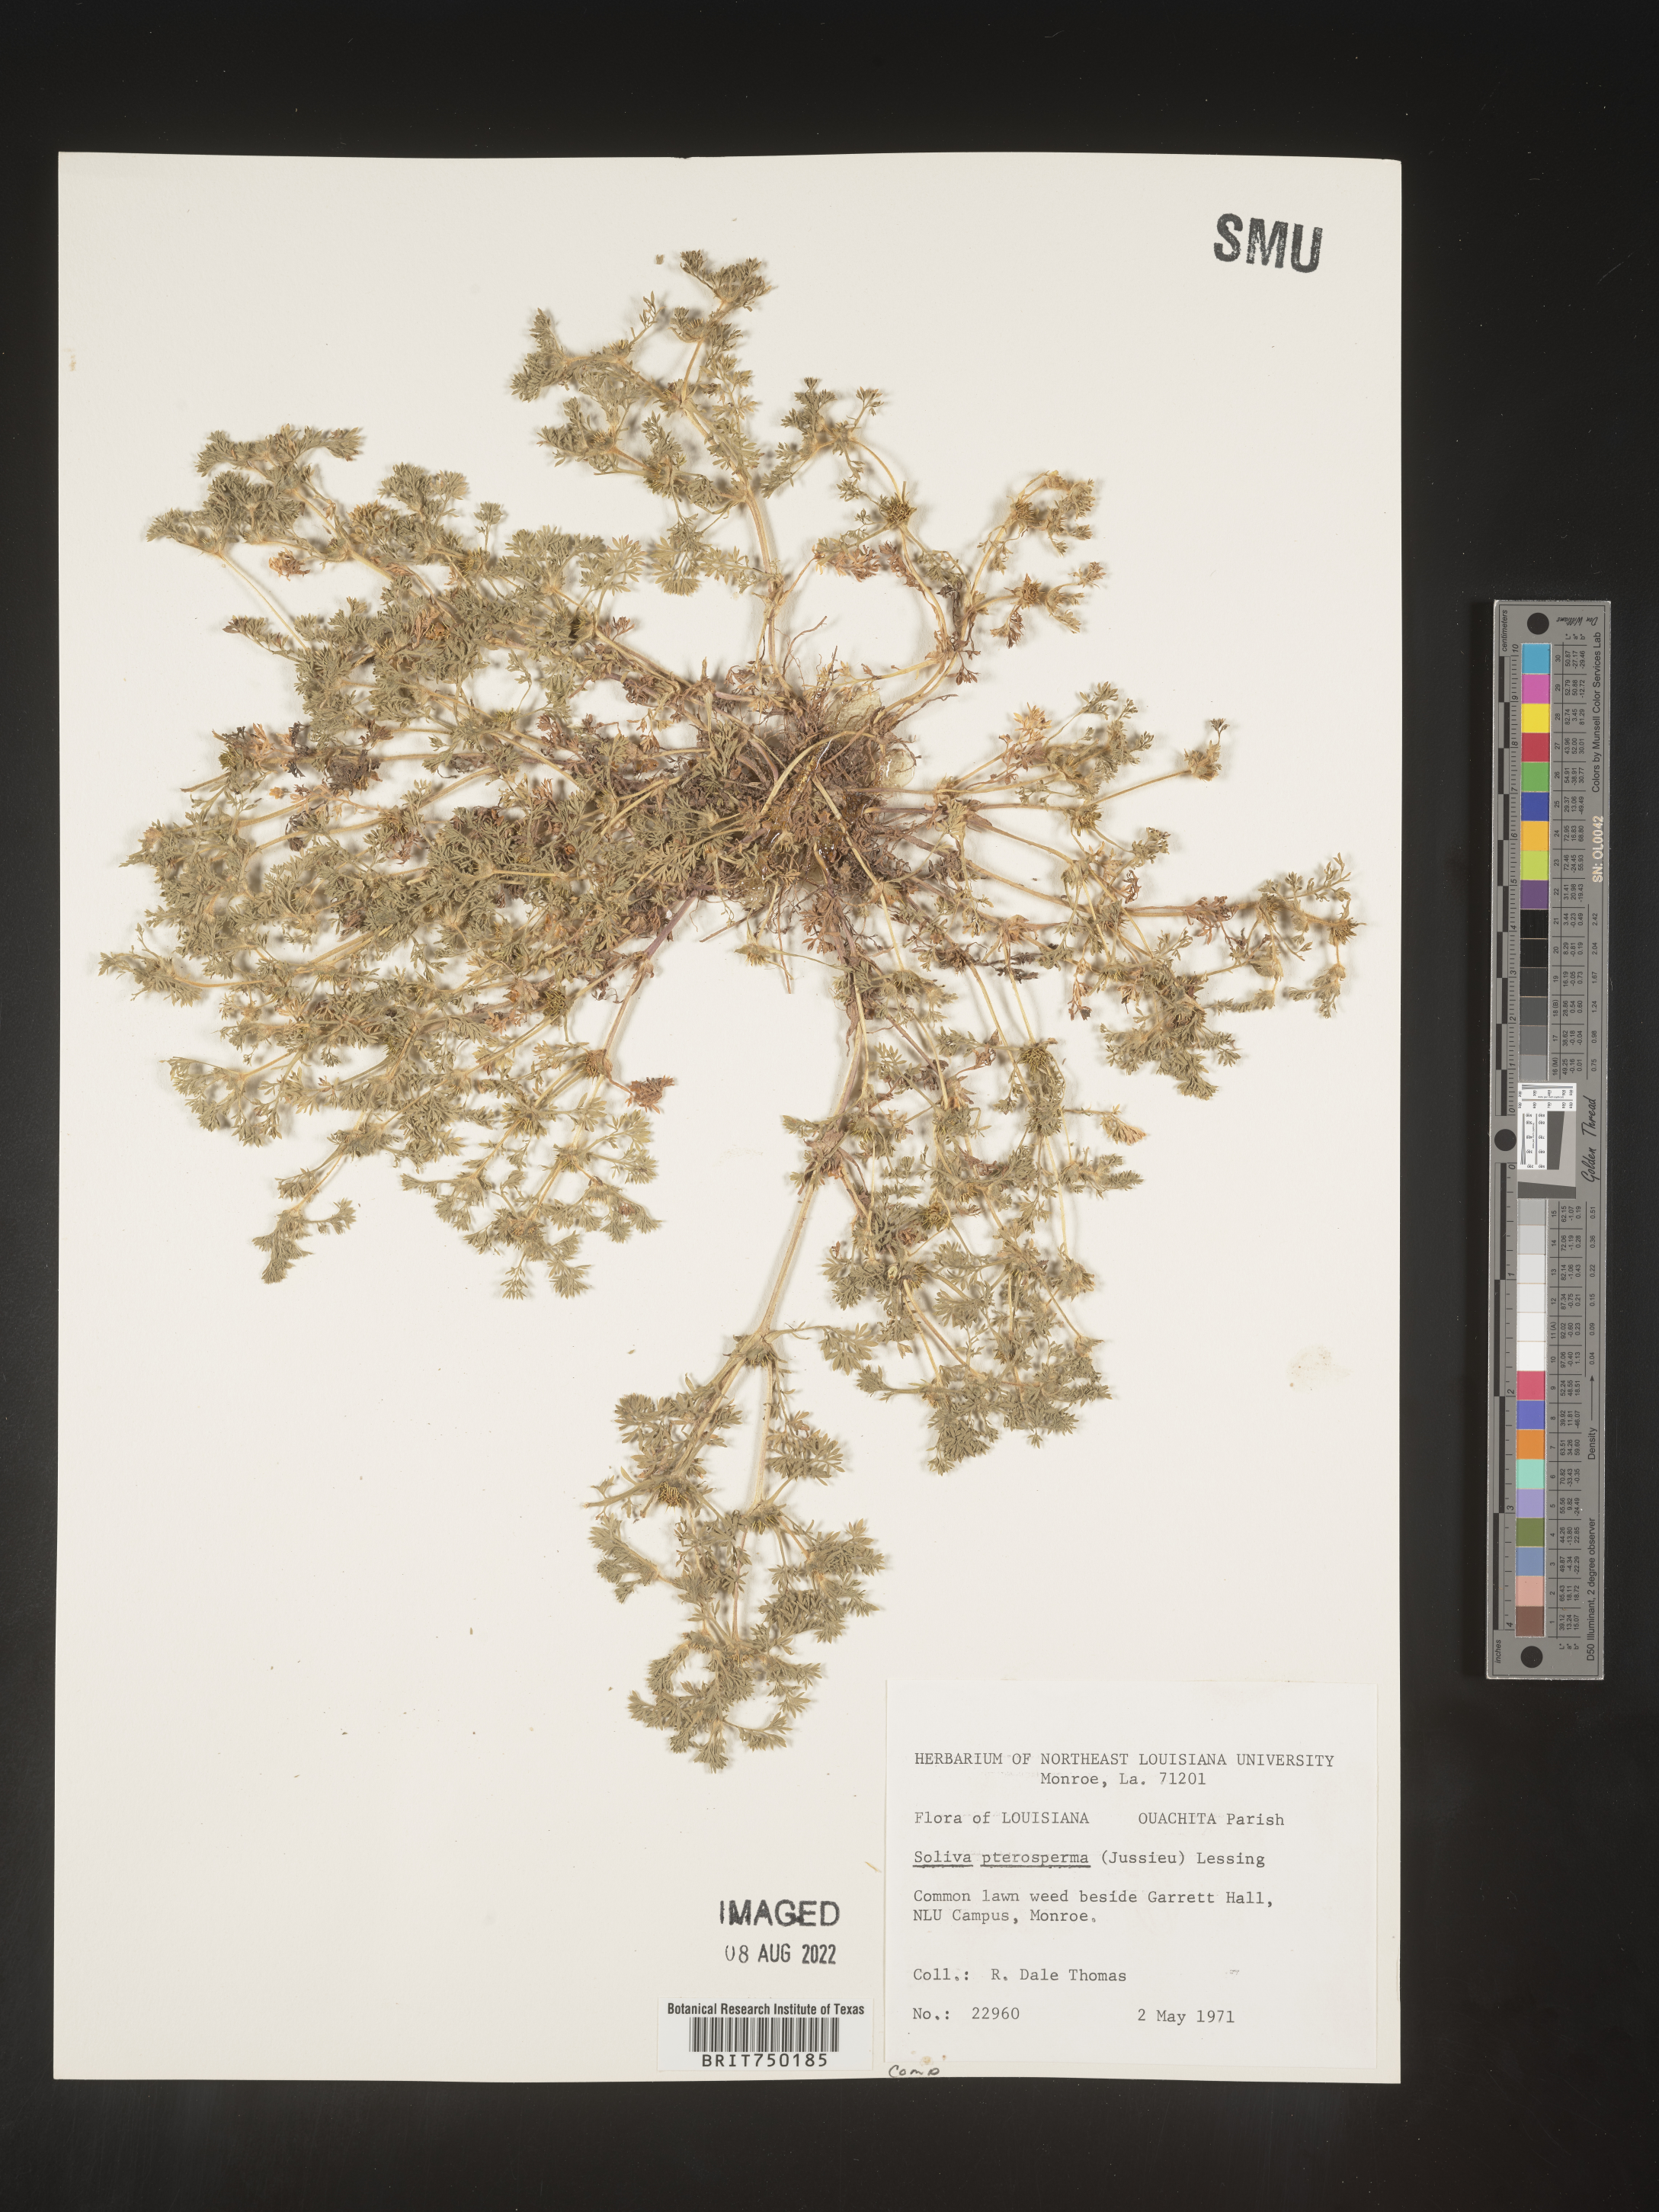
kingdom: Plantae
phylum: Tracheophyta
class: Magnoliopsida
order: Asterales
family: Asteraceae
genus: Soliva
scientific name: Soliva sessilis
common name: Field burrweed
